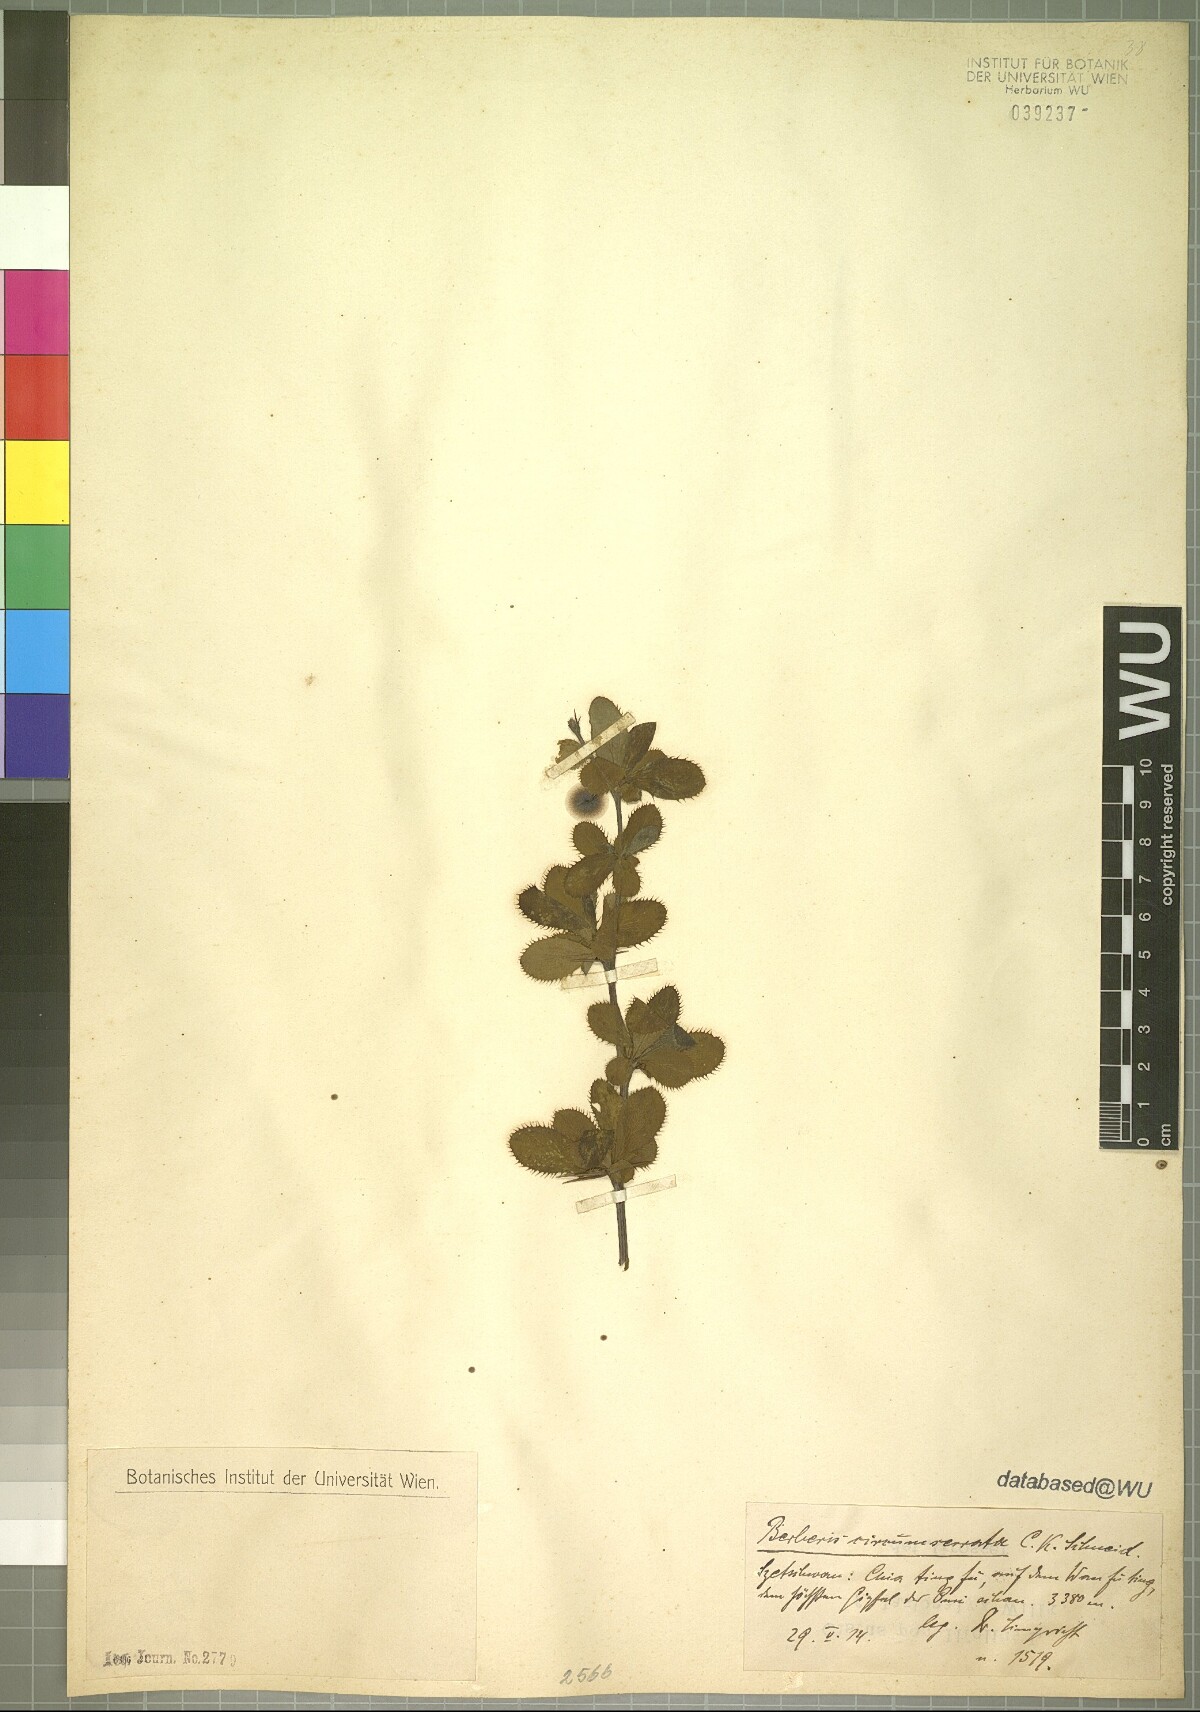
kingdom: Plantae
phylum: Tracheophyta
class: Magnoliopsida
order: Ranunculales
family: Berberidaceae
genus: Berberis
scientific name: Berberis circumserrata
